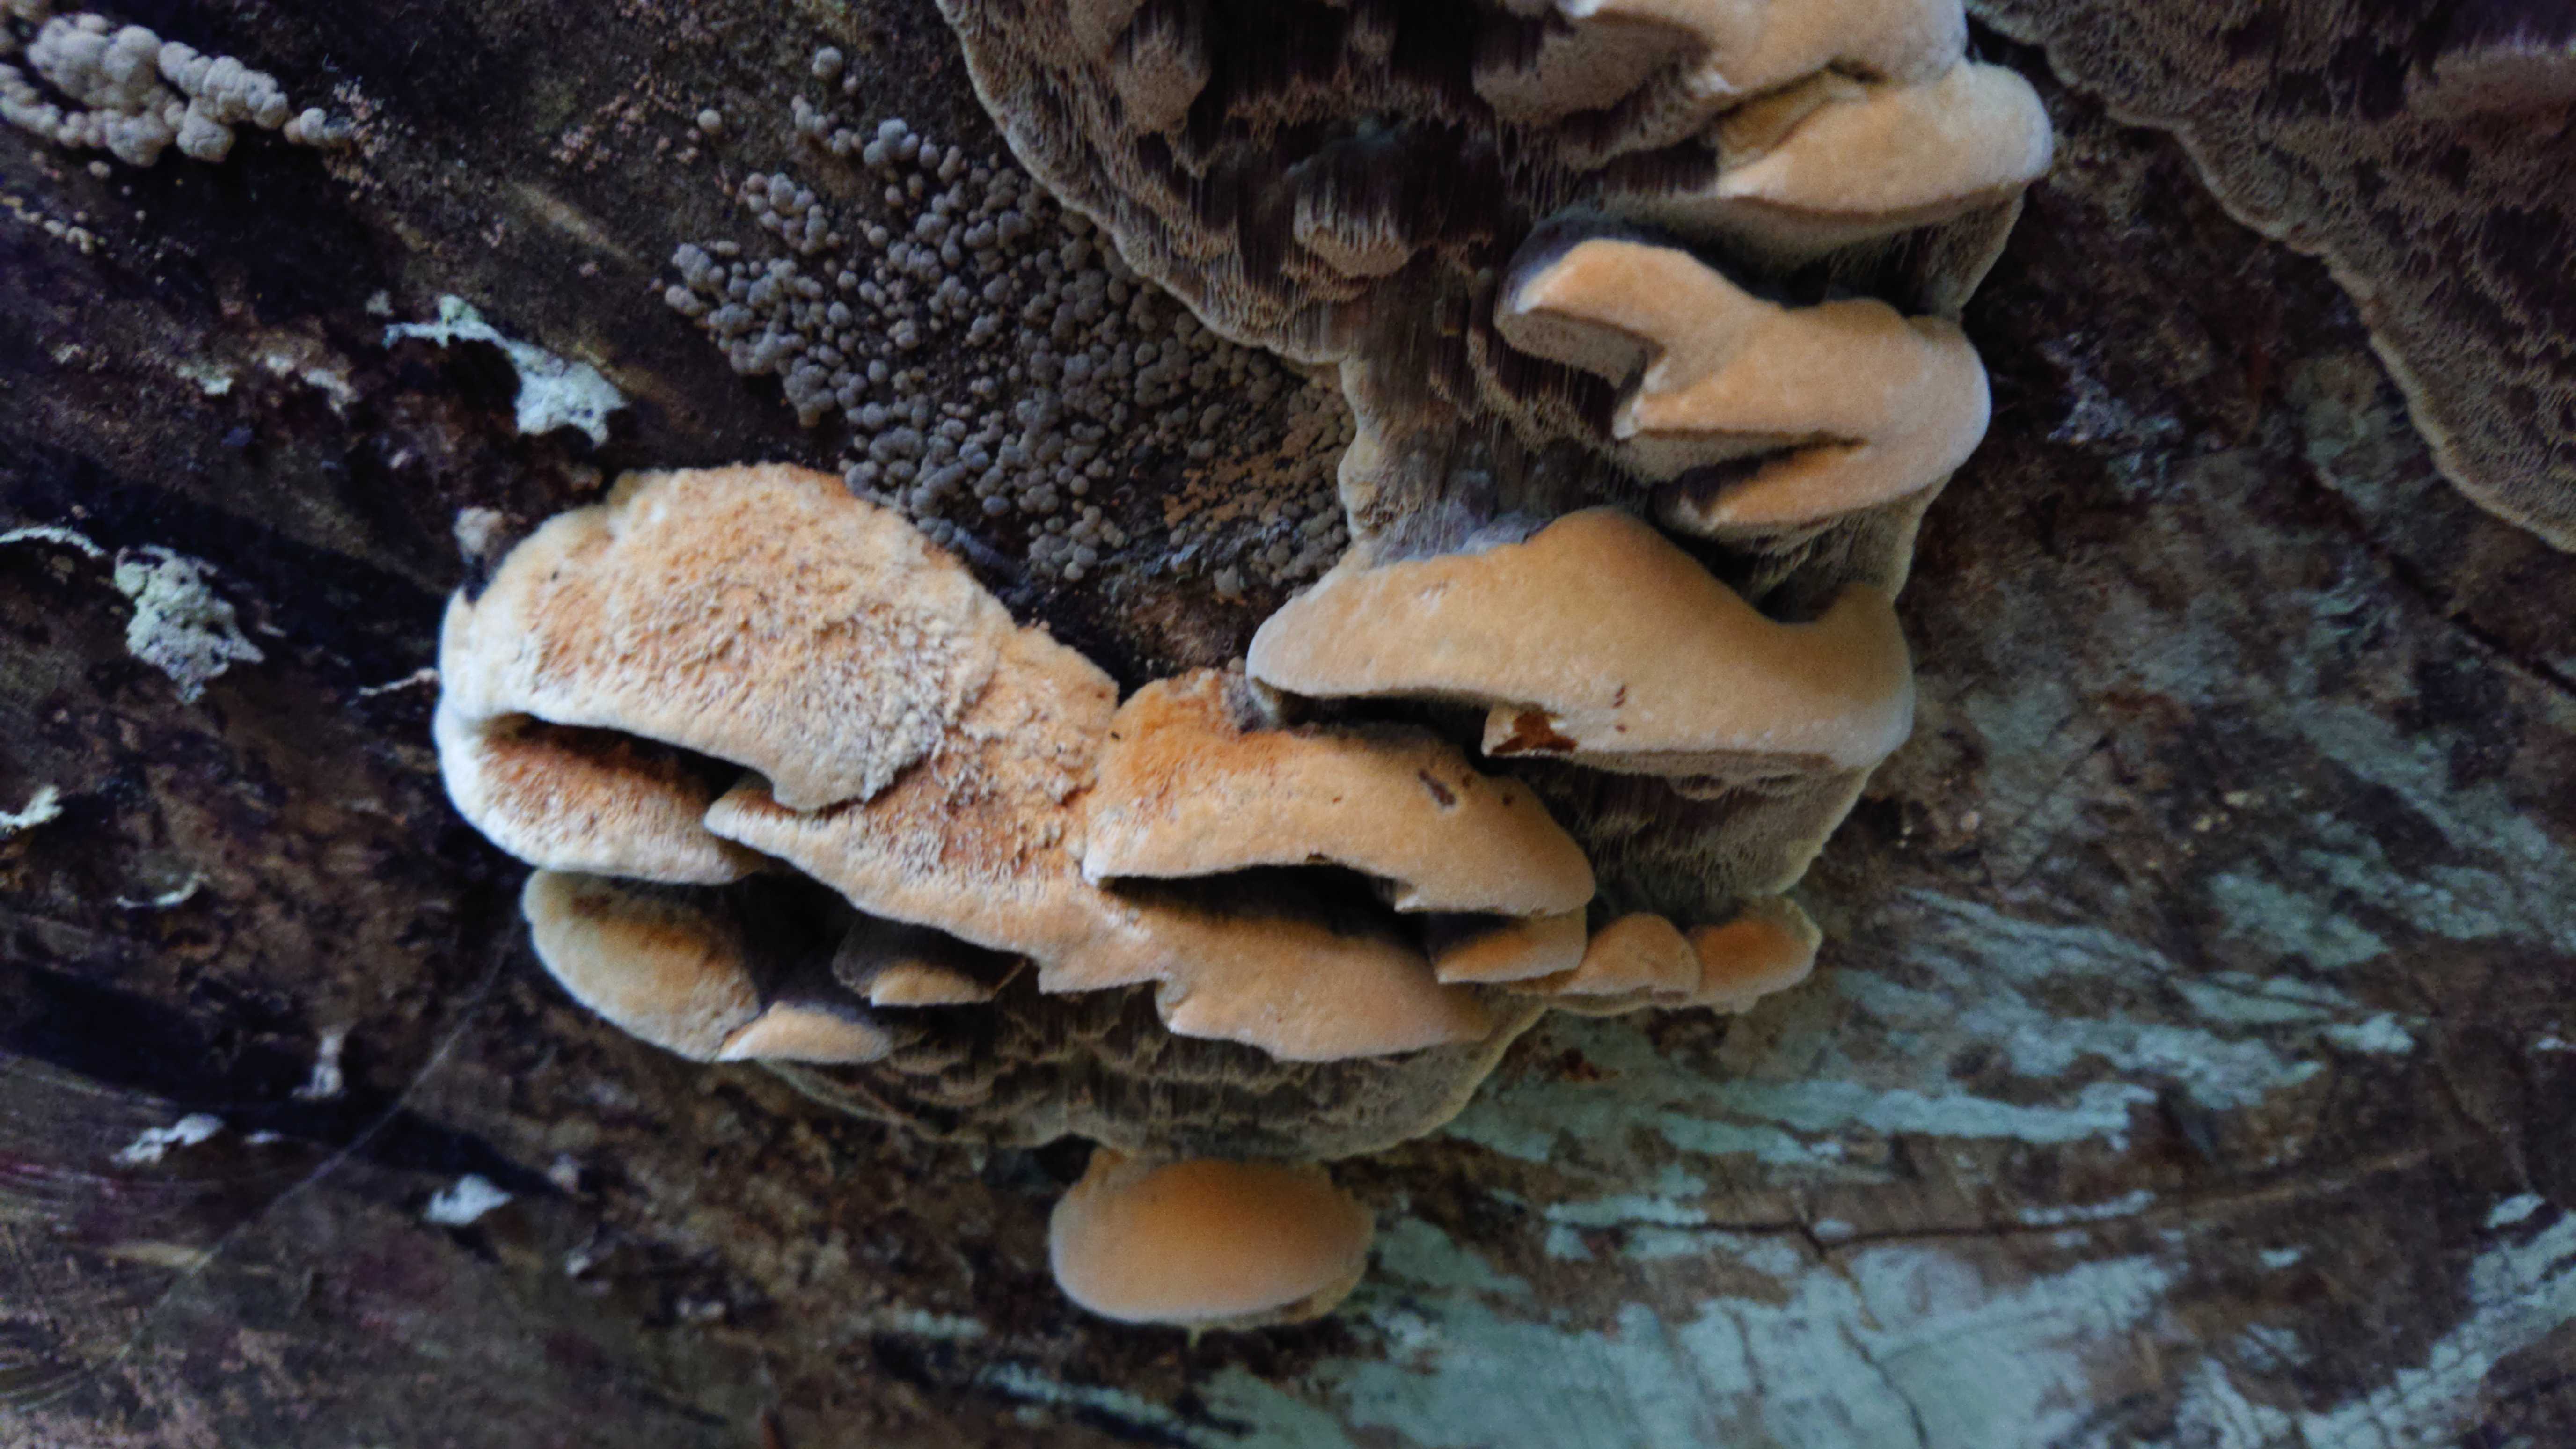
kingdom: Fungi
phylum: Basidiomycota
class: Agaricomycetes
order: Hymenochaetales
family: Hymenochaetaceae
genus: Mensularia
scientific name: Mensularia nodulosa
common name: bøge-spejlporesvamp
